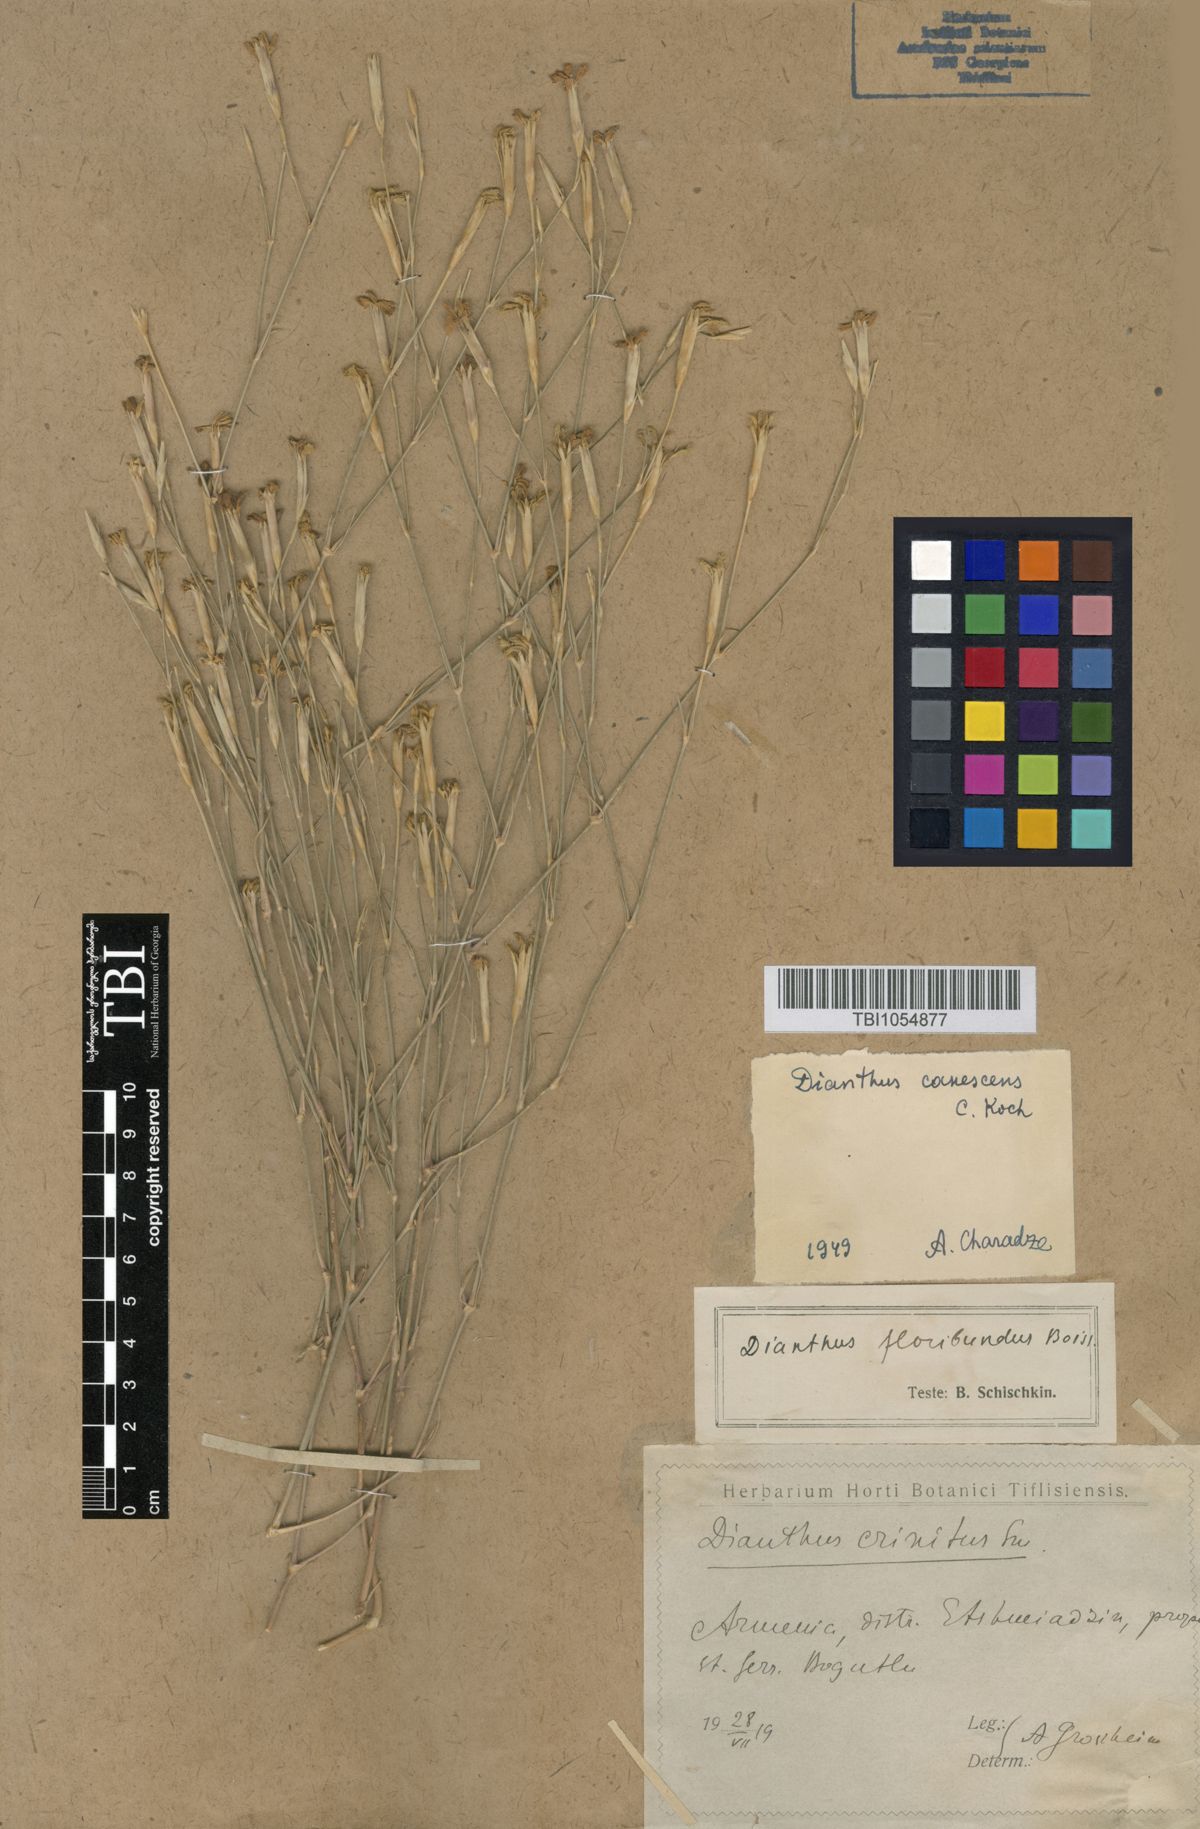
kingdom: Plantae
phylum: Tracheophyta
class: Magnoliopsida
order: Caryophyllales
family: Caryophyllaceae
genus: Dianthus
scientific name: Dianthus orientalis
